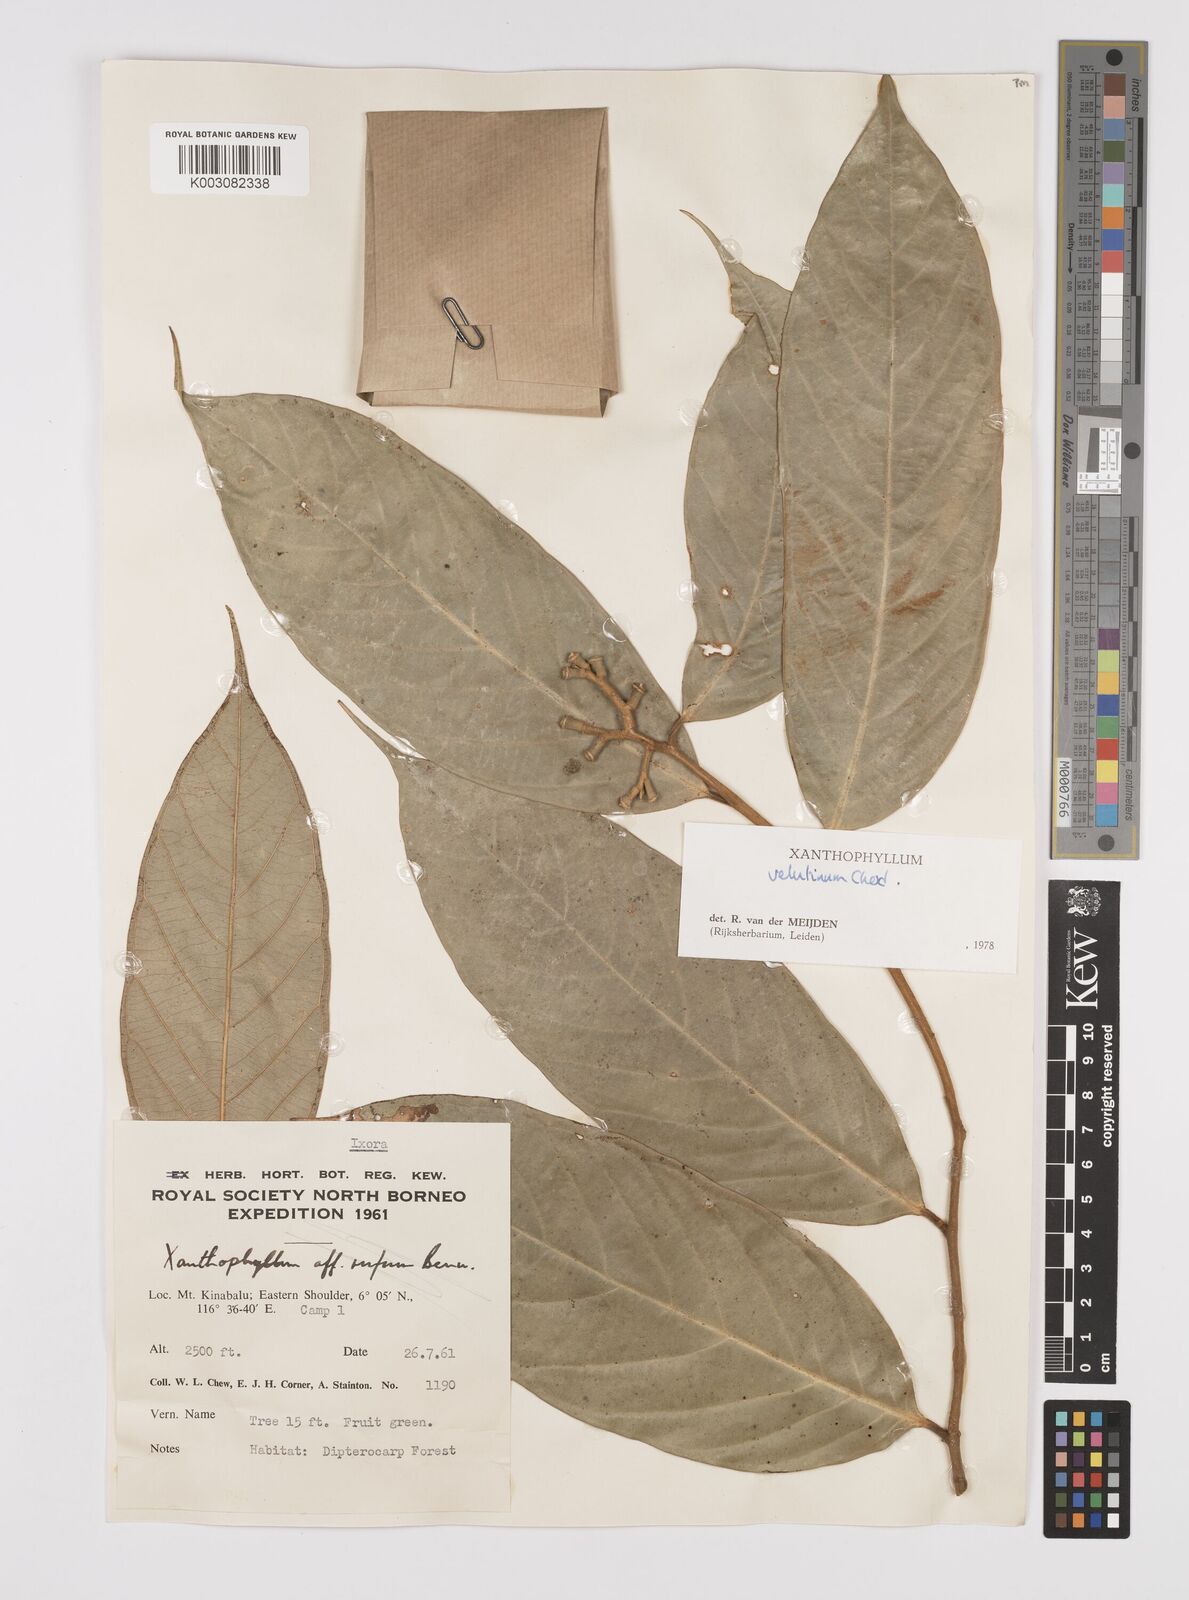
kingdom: Plantae
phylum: Tracheophyta
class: Magnoliopsida
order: Fabales
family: Polygalaceae
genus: Xanthophyllum
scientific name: Xanthophyllum velutinum
